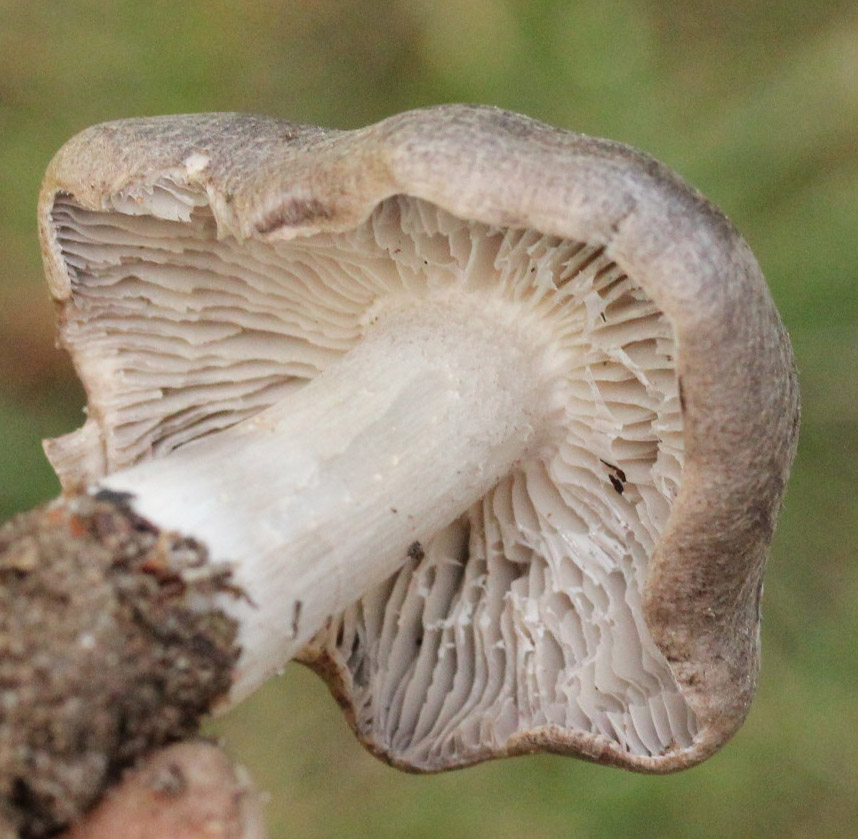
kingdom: Fungi
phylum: Basidiomycota
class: Agaricomycetes
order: Agaricales
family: Tricholomataceae
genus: Tricholoma
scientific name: Tricholoma terreum
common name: jordfarvet ridderhat
